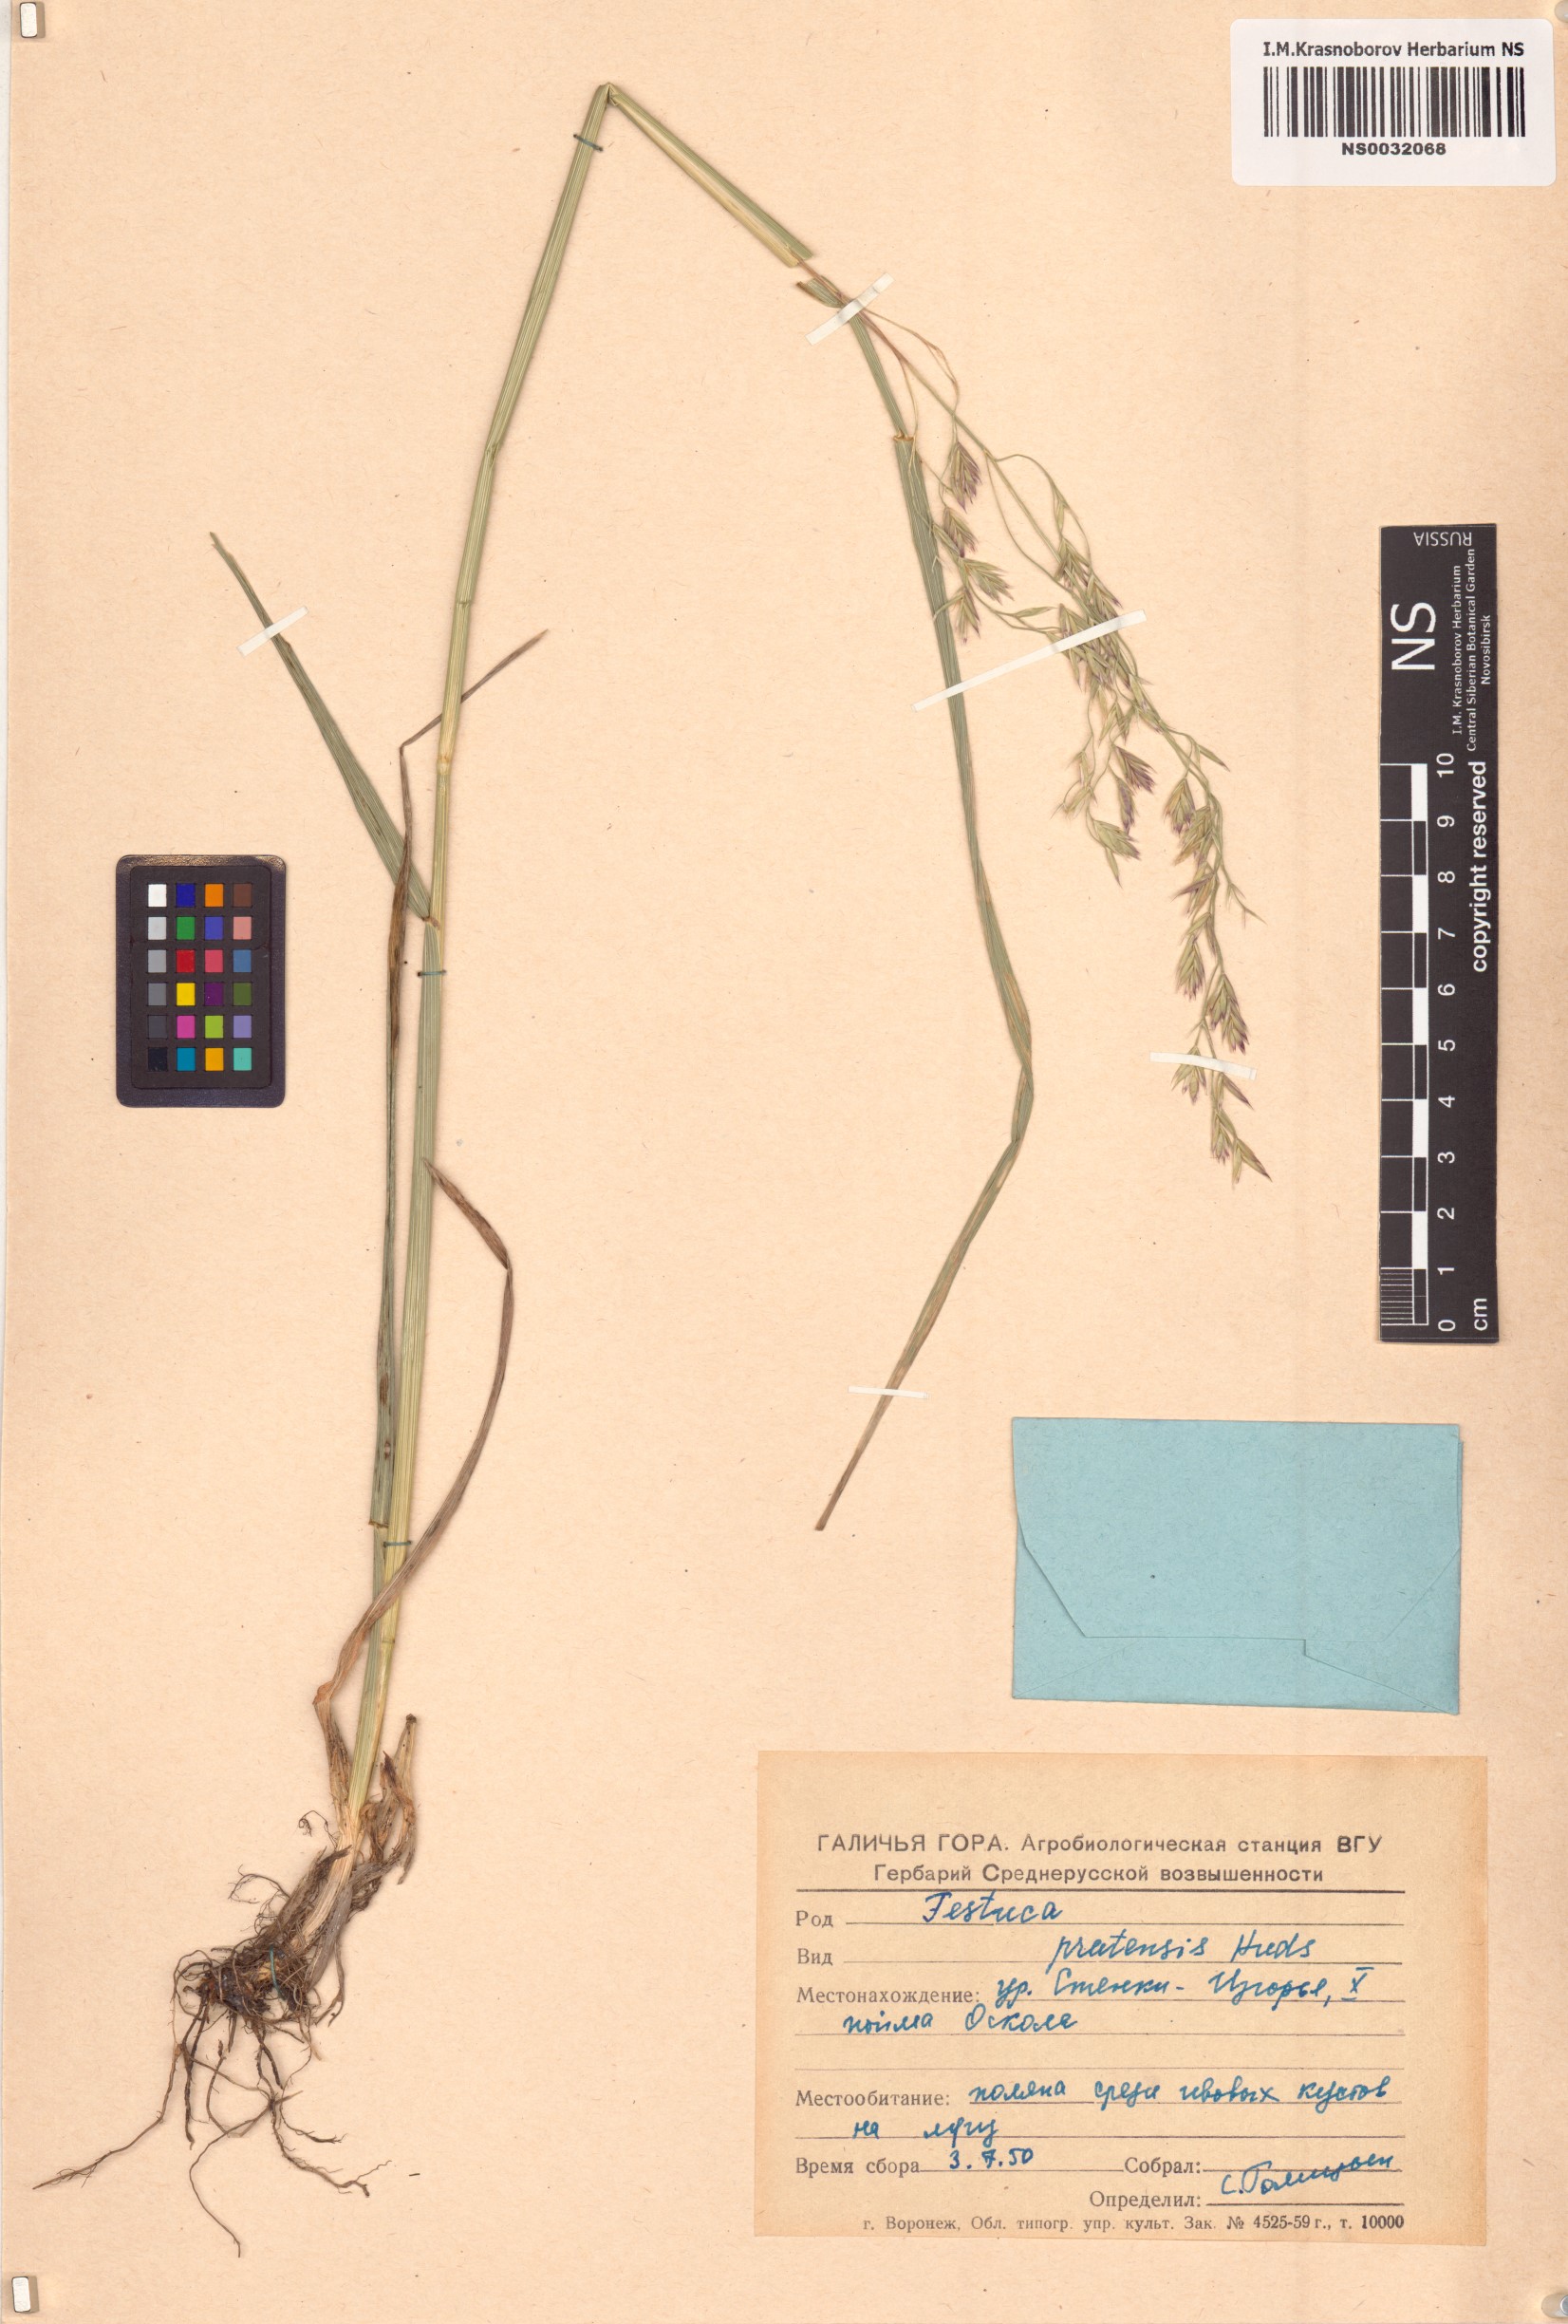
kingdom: Plantae
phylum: Tracheophyta
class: Liliopsida
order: Poales
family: Poaceae
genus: Lolium
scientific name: Lolium pratense
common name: Dover grass
